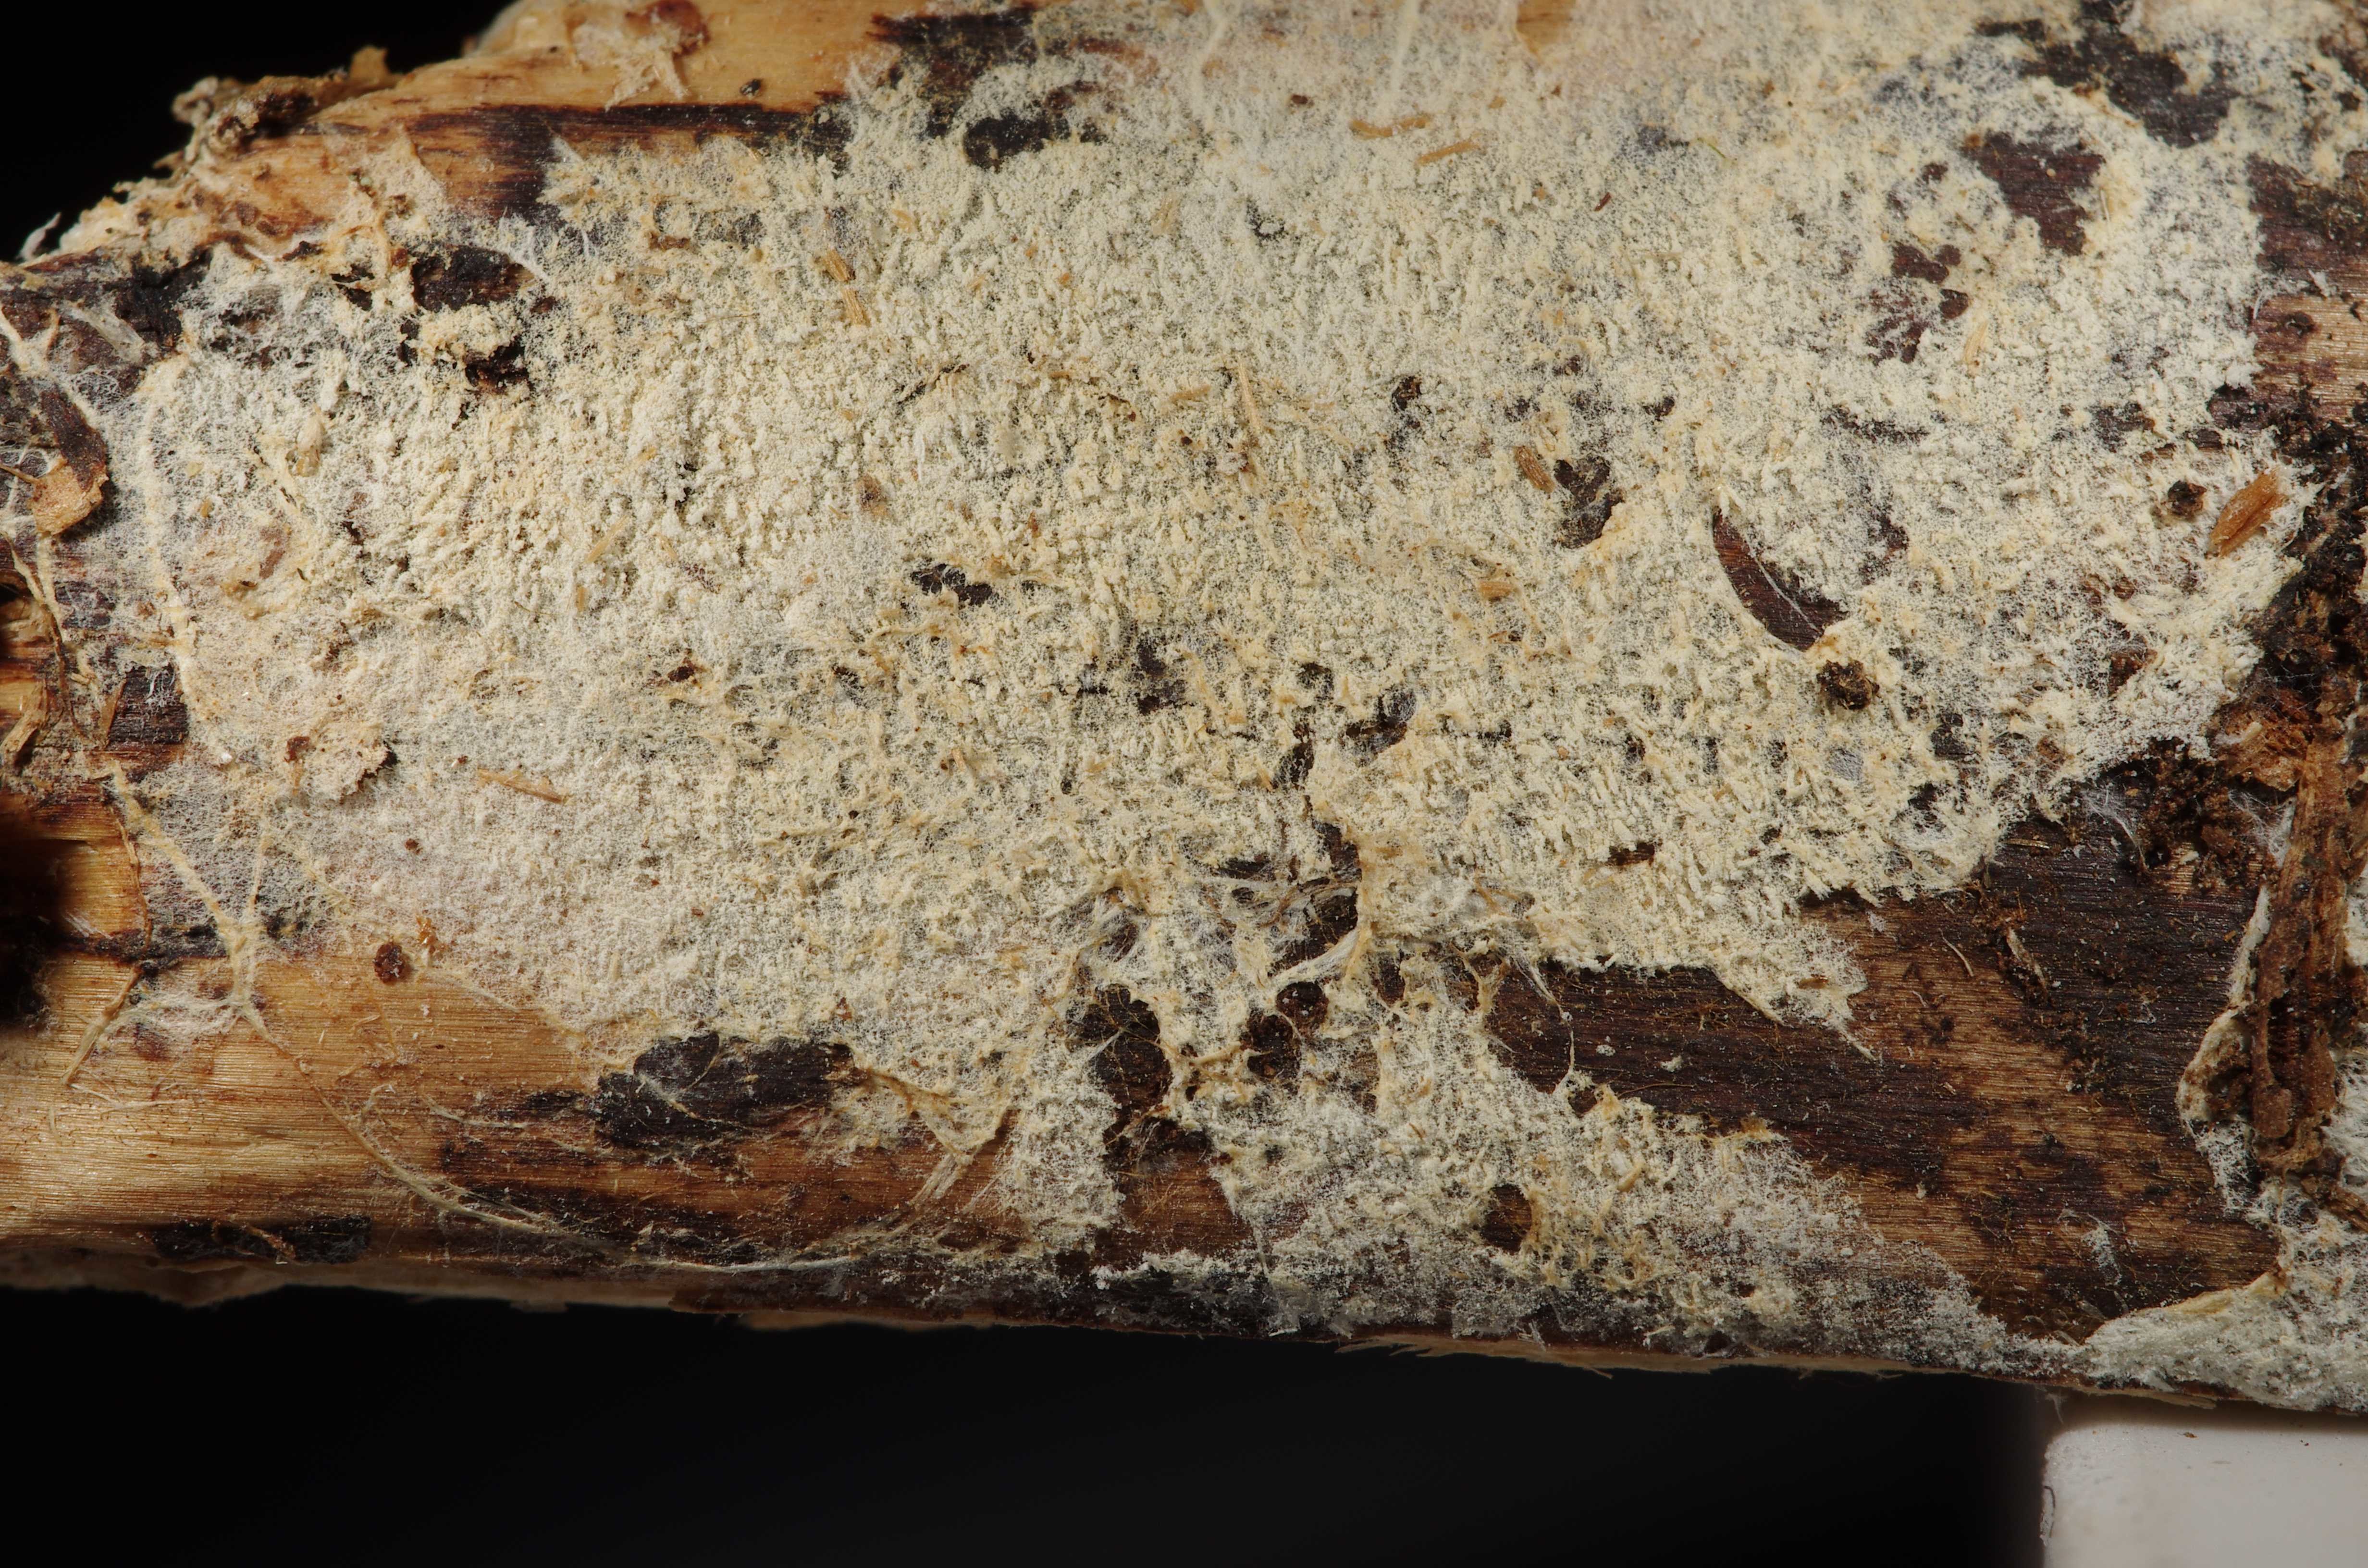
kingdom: Fungi
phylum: Basidiomycota
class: Agaricomycetes
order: Trechisporales
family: Sistotremataceae
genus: Trechispora
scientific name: Trechispora verruculosa
